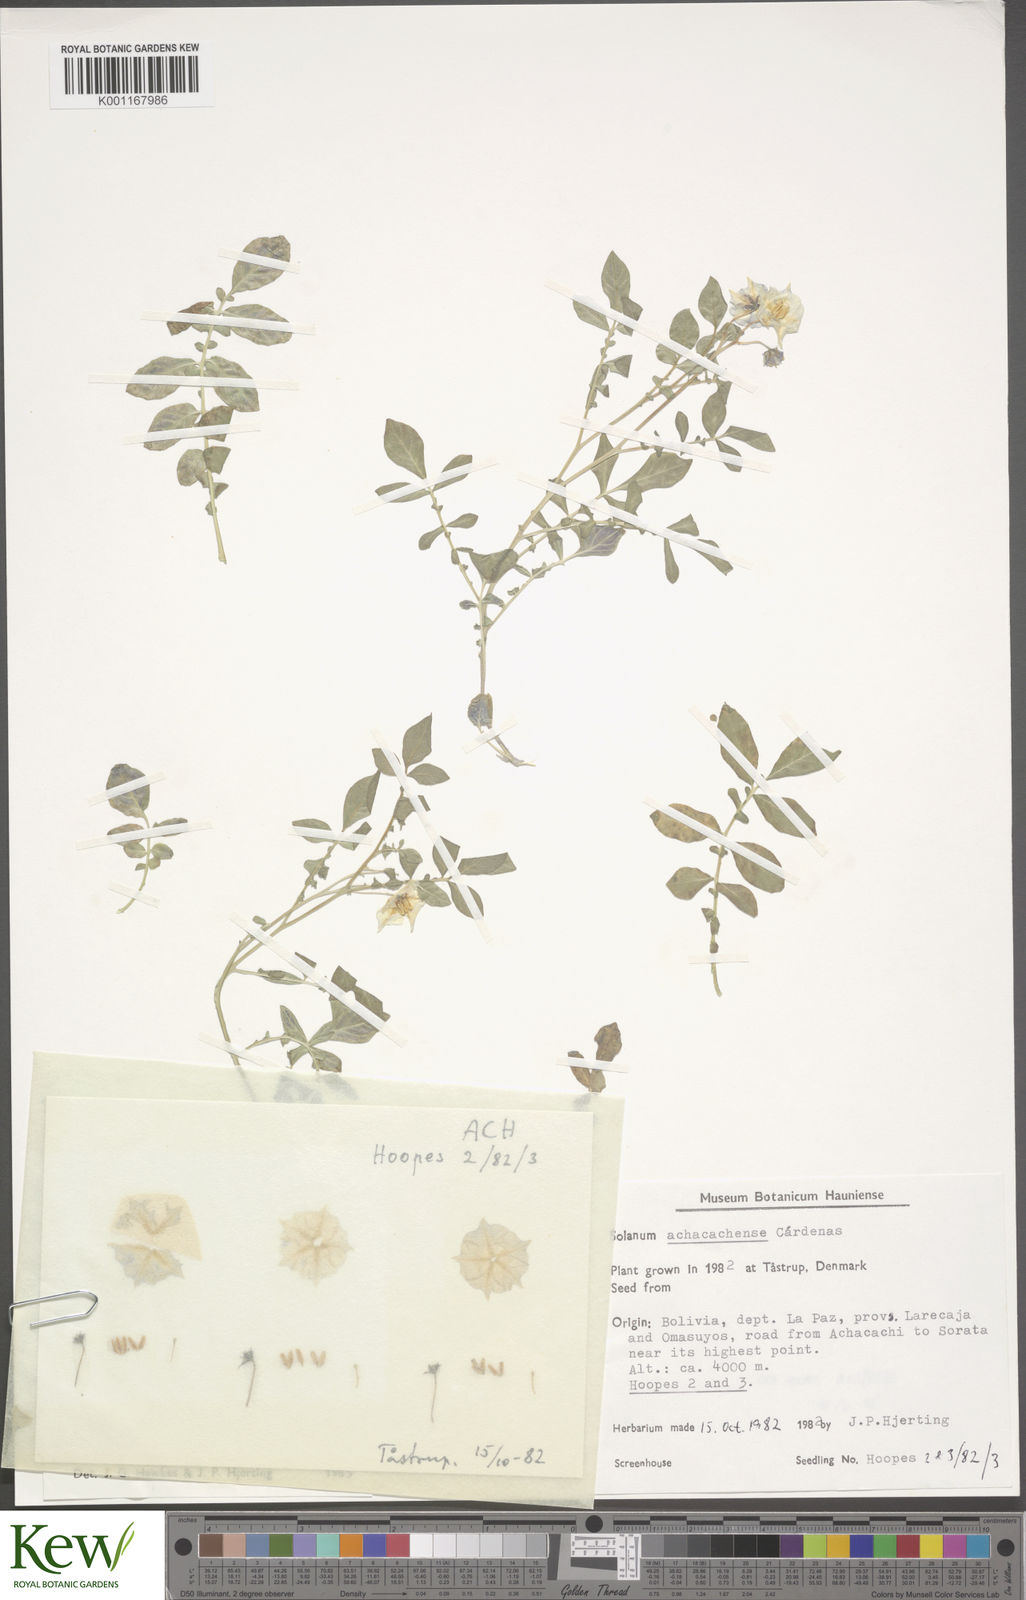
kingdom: Plantae
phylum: Tracheophyta
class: Magnoliopsida
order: Solanales
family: Solanaceae
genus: Solanum
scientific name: Solanum
